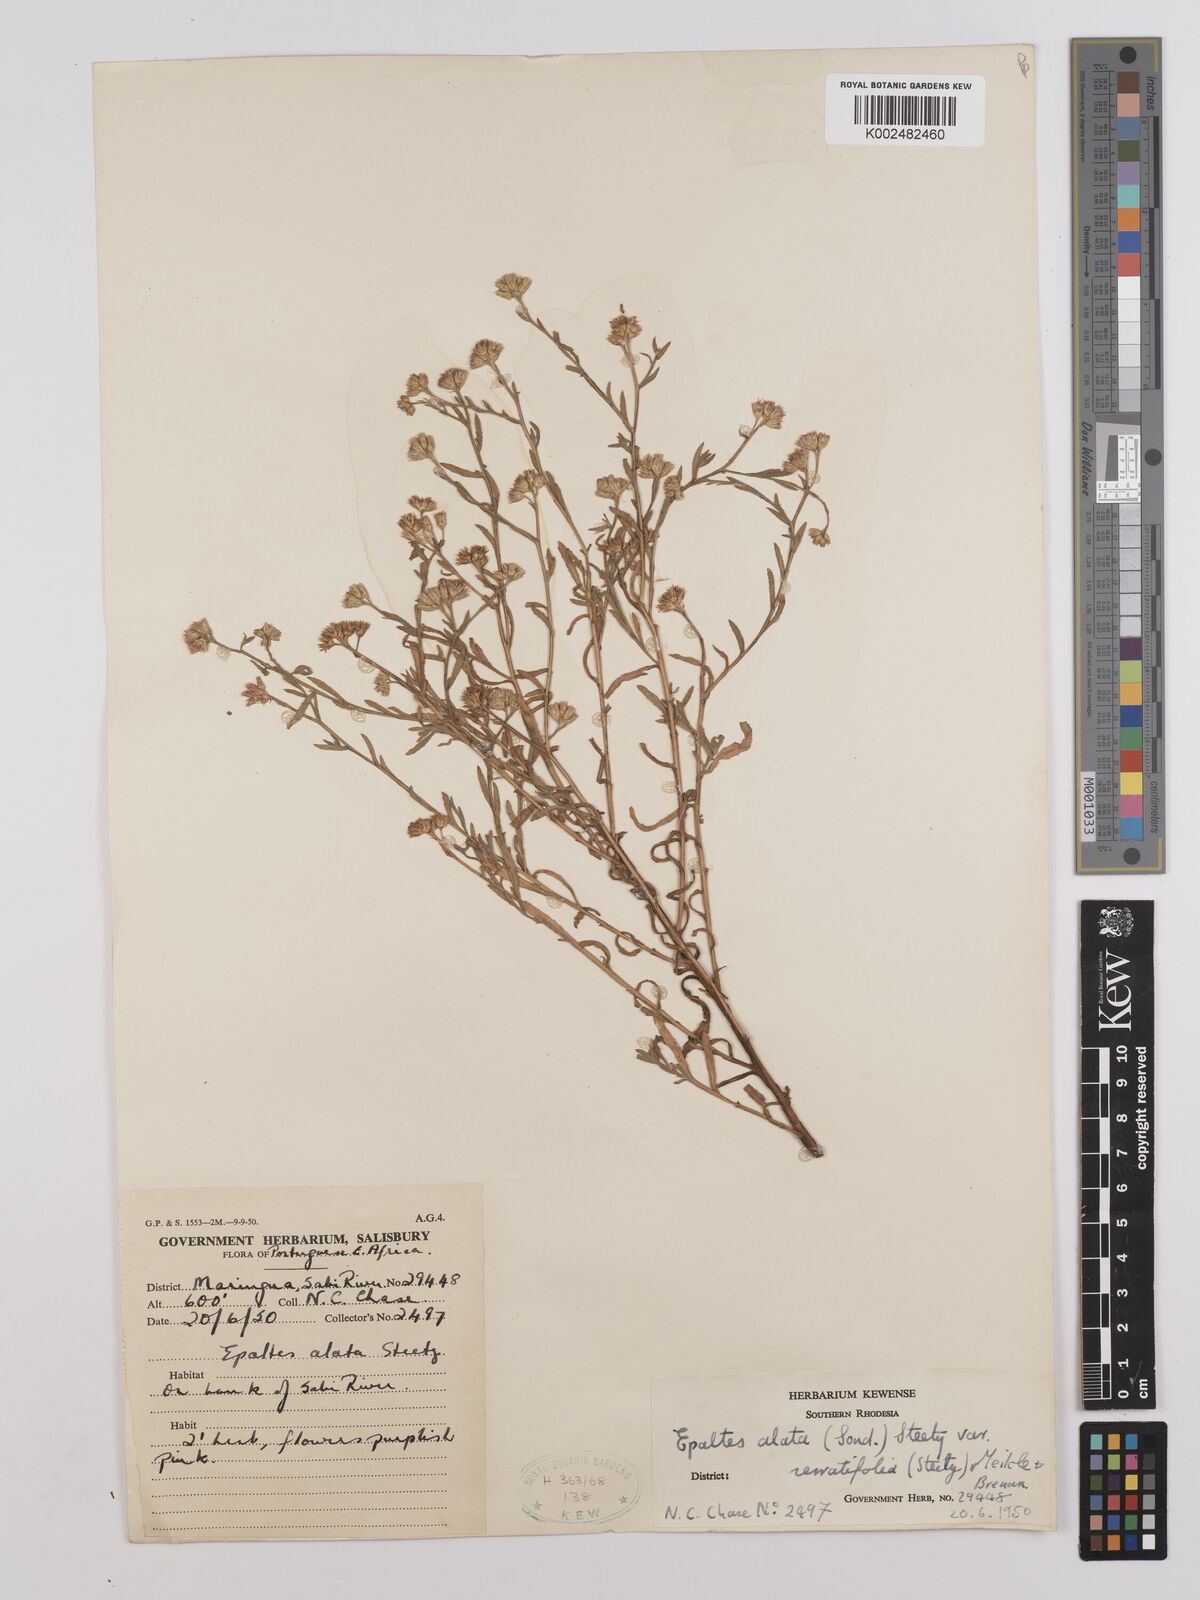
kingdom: Plantae
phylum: Tracheophyta
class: Magnoliopsida
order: Asterales
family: Asteraceae
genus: Litogyne
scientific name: Litogyne gariepina
